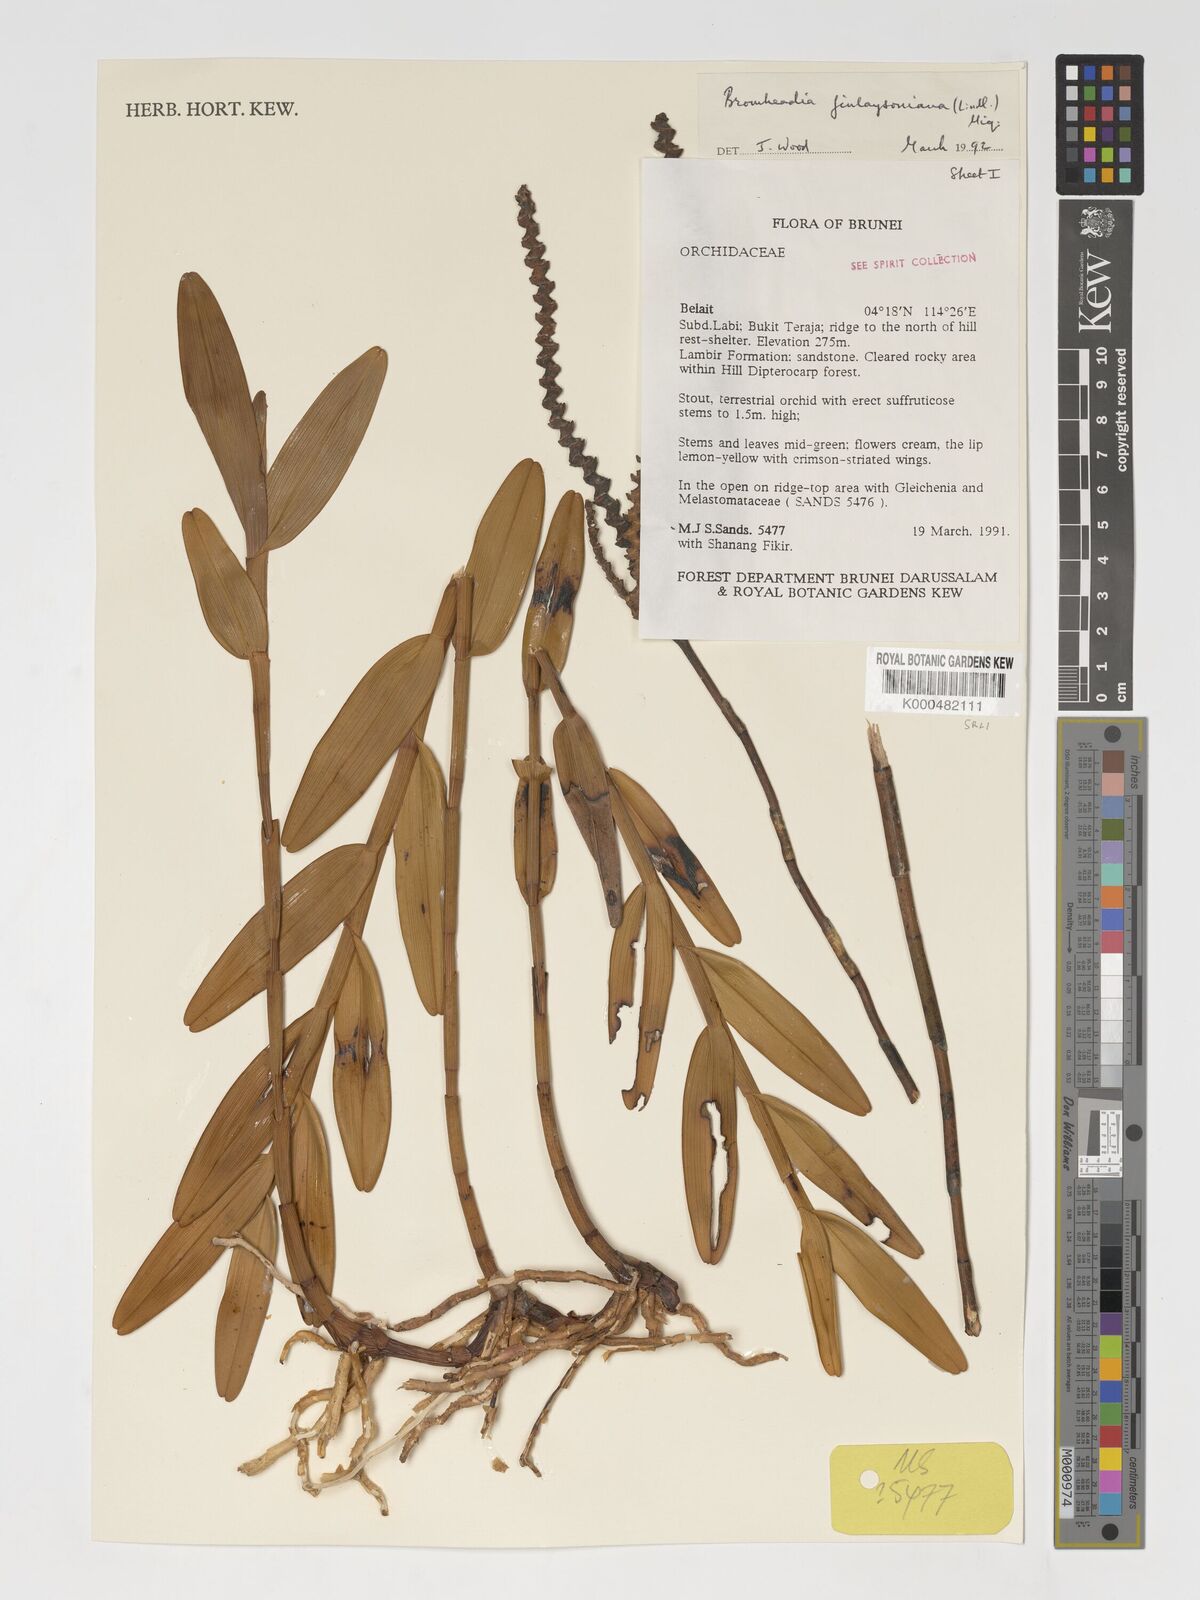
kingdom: Plantae
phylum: Tracheophyta
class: Liliopsida
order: Asparagales
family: Orchidaceae
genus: Bromheadia
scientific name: Bromheadia finlaysoniana
